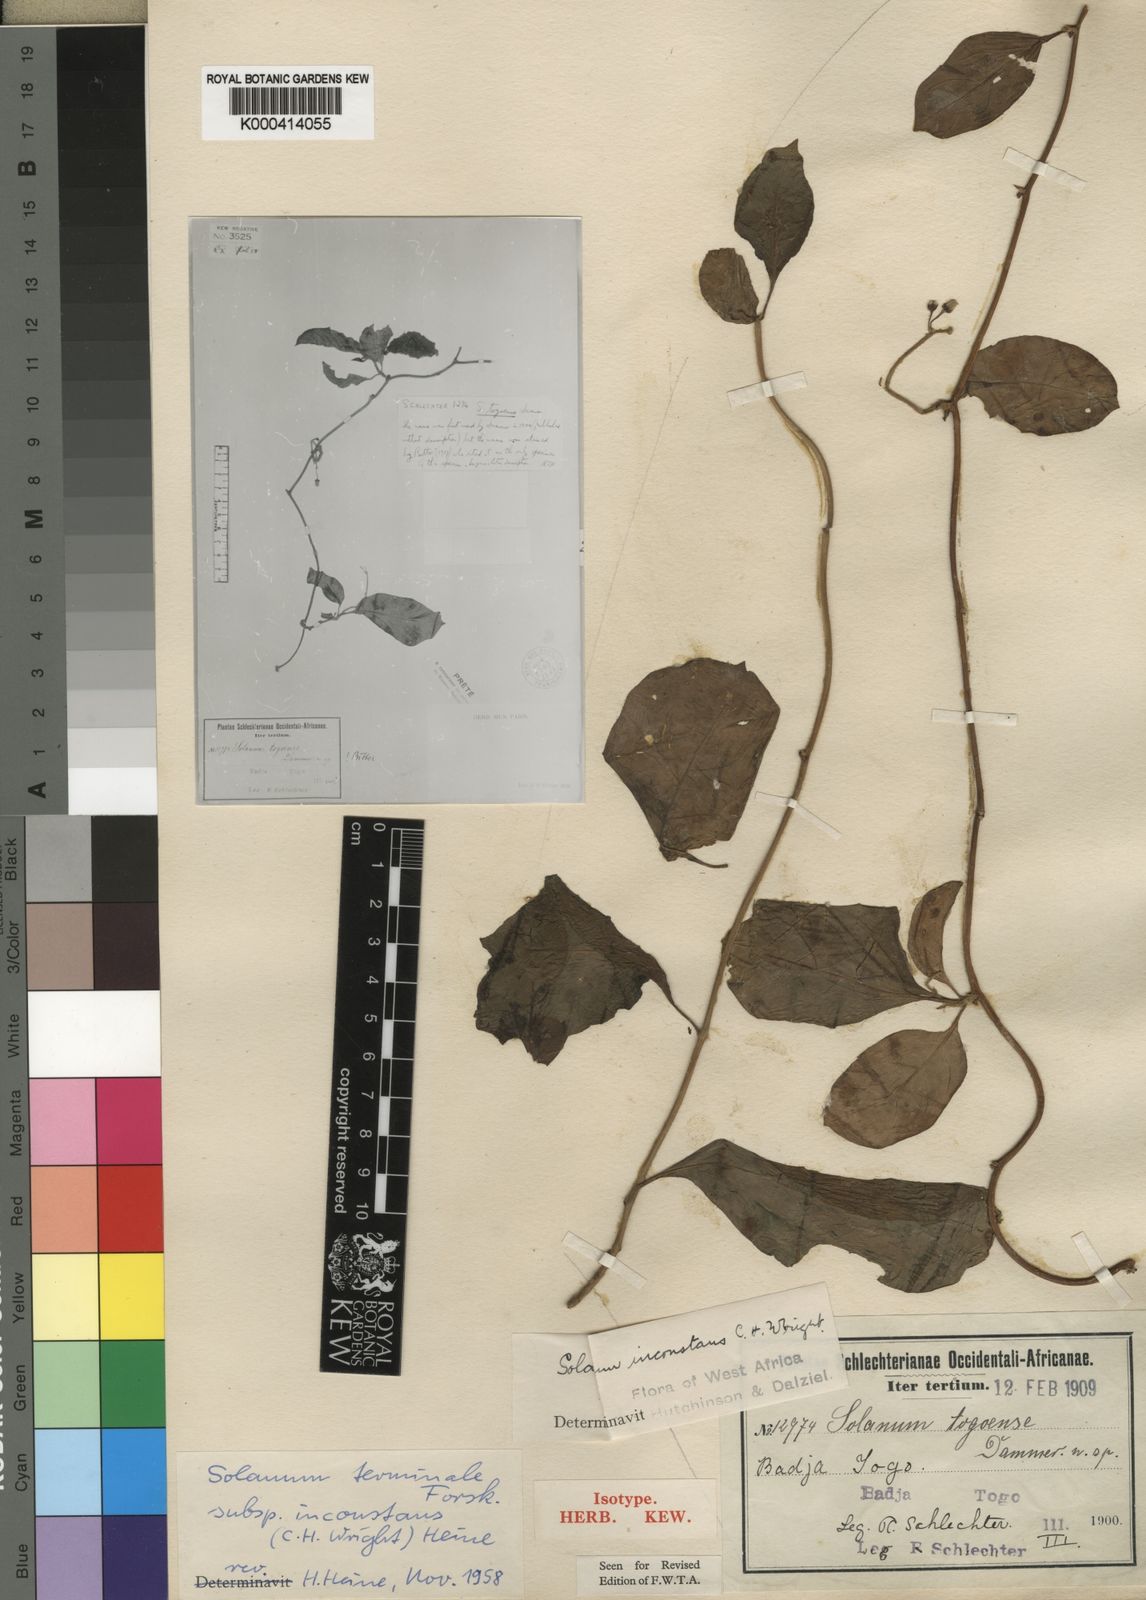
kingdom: Plantae
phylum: Tracheophyta
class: Magnoliopsida
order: Solanales
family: Solanaceae
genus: Solanum
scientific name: Solanum terminale
